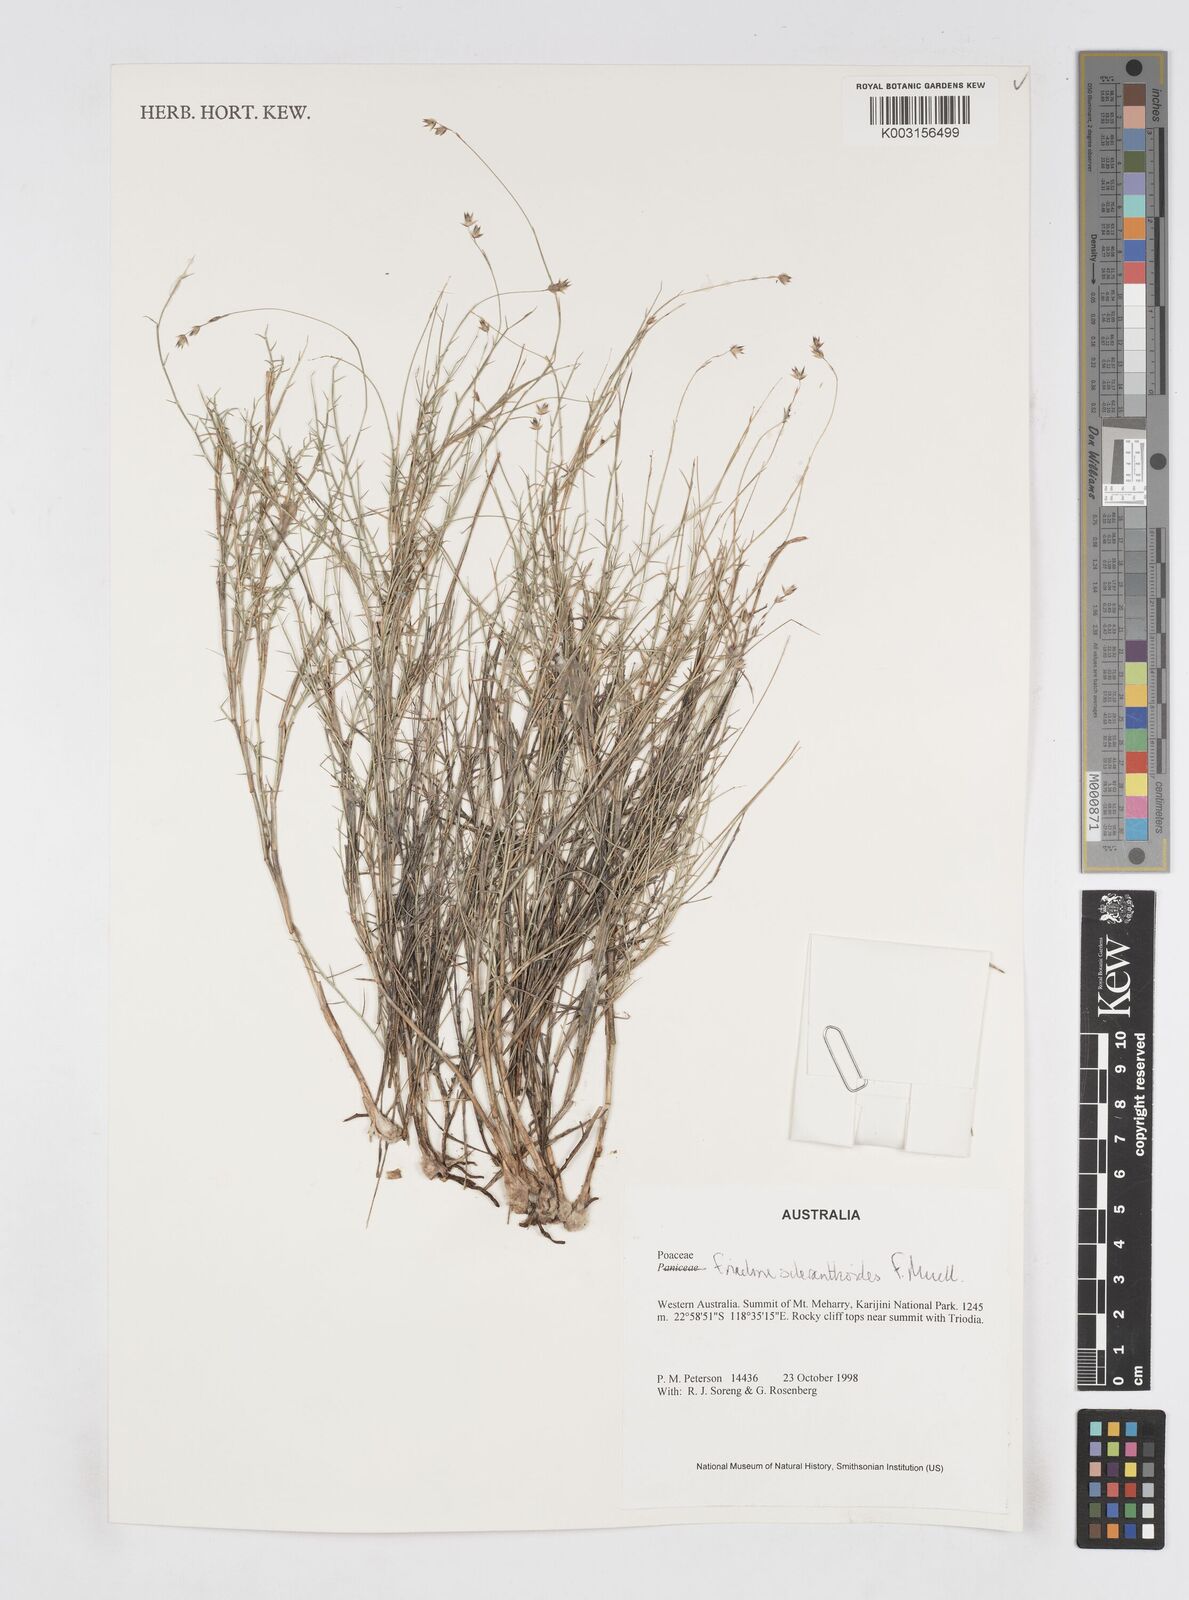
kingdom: Plantae
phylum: Tracheophyta
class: Liliopsida
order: Poales
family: Poaceae
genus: Eriachne
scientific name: Eriachne scleranthoides
